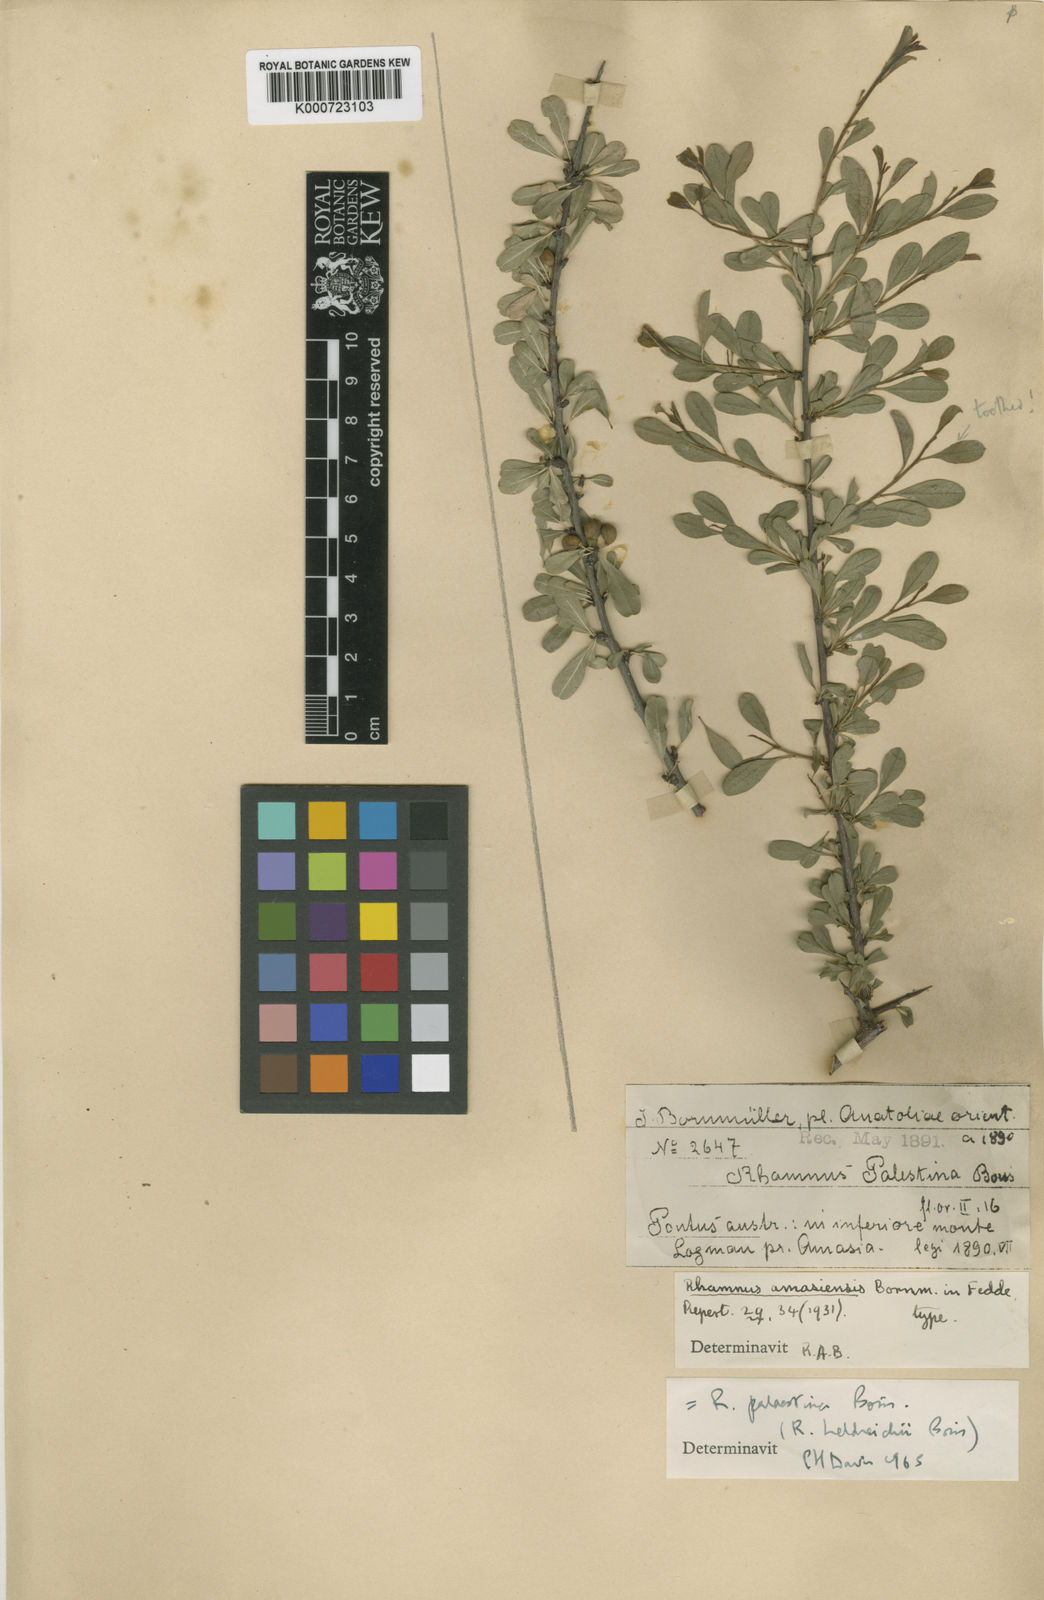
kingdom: Plantae
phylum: Tracheophyta
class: Magnoliopsida
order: Rosales
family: Rhamnaceae
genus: Rhamnus
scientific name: Rhamnus lycioides
